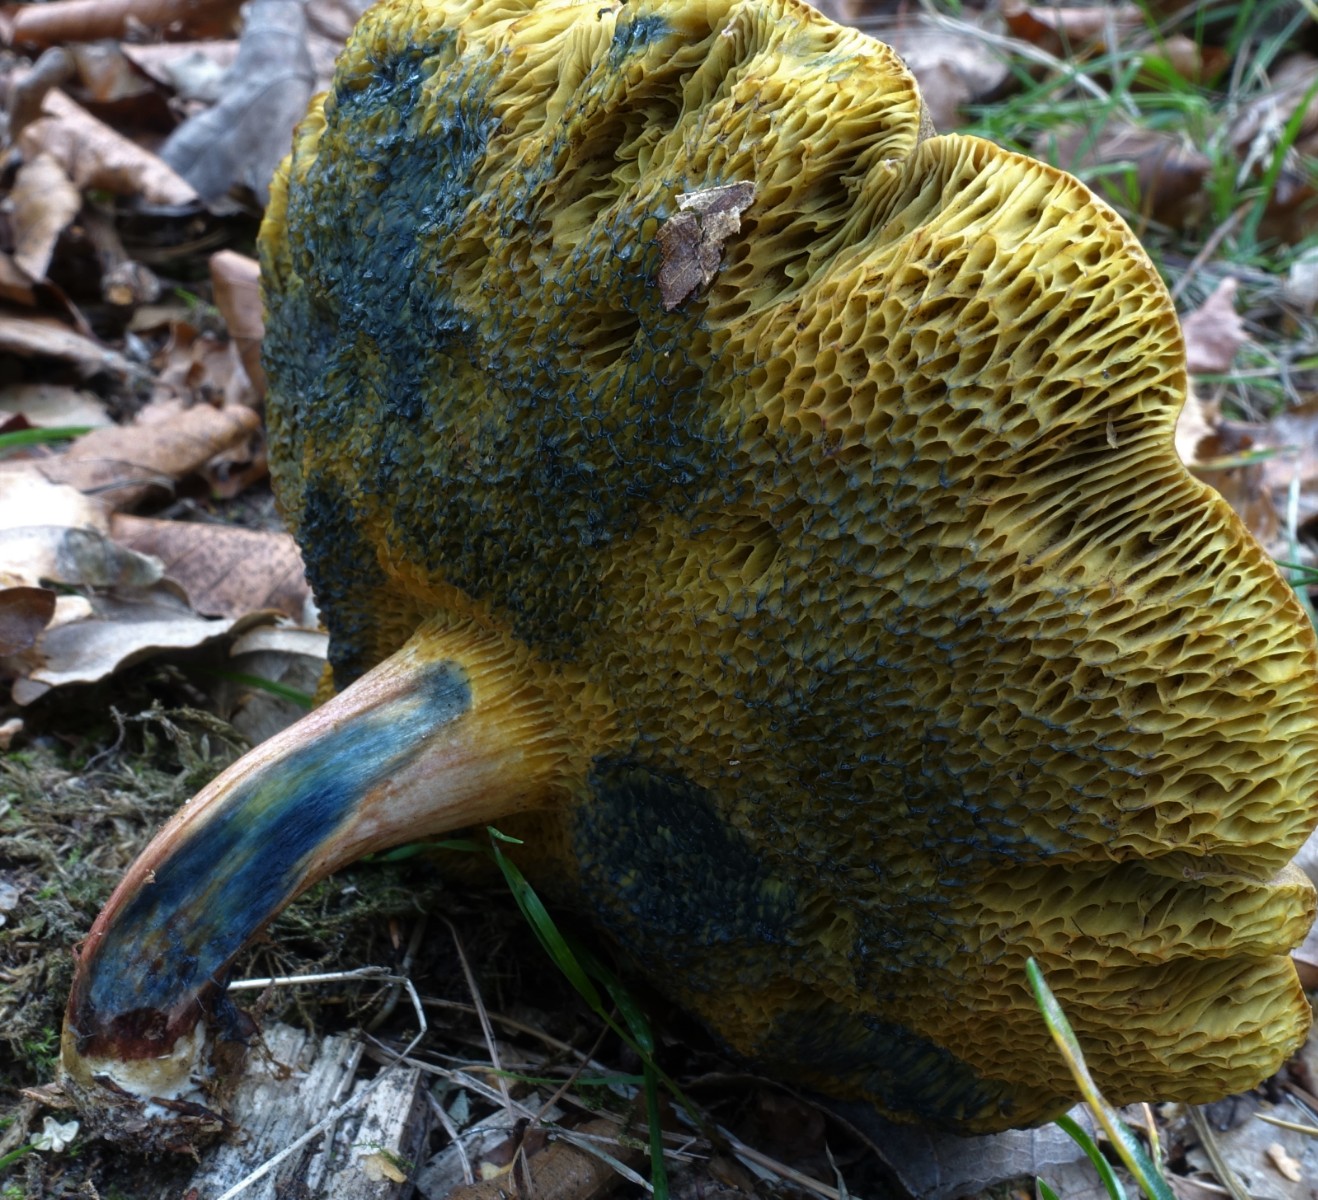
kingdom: Fungi
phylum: Basidiomycota
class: Agaricomycetes
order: Boletales
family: Boletaceae
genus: Xerocomellus
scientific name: Xerocomellus cisalpinus
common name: finsprukken rørhat
